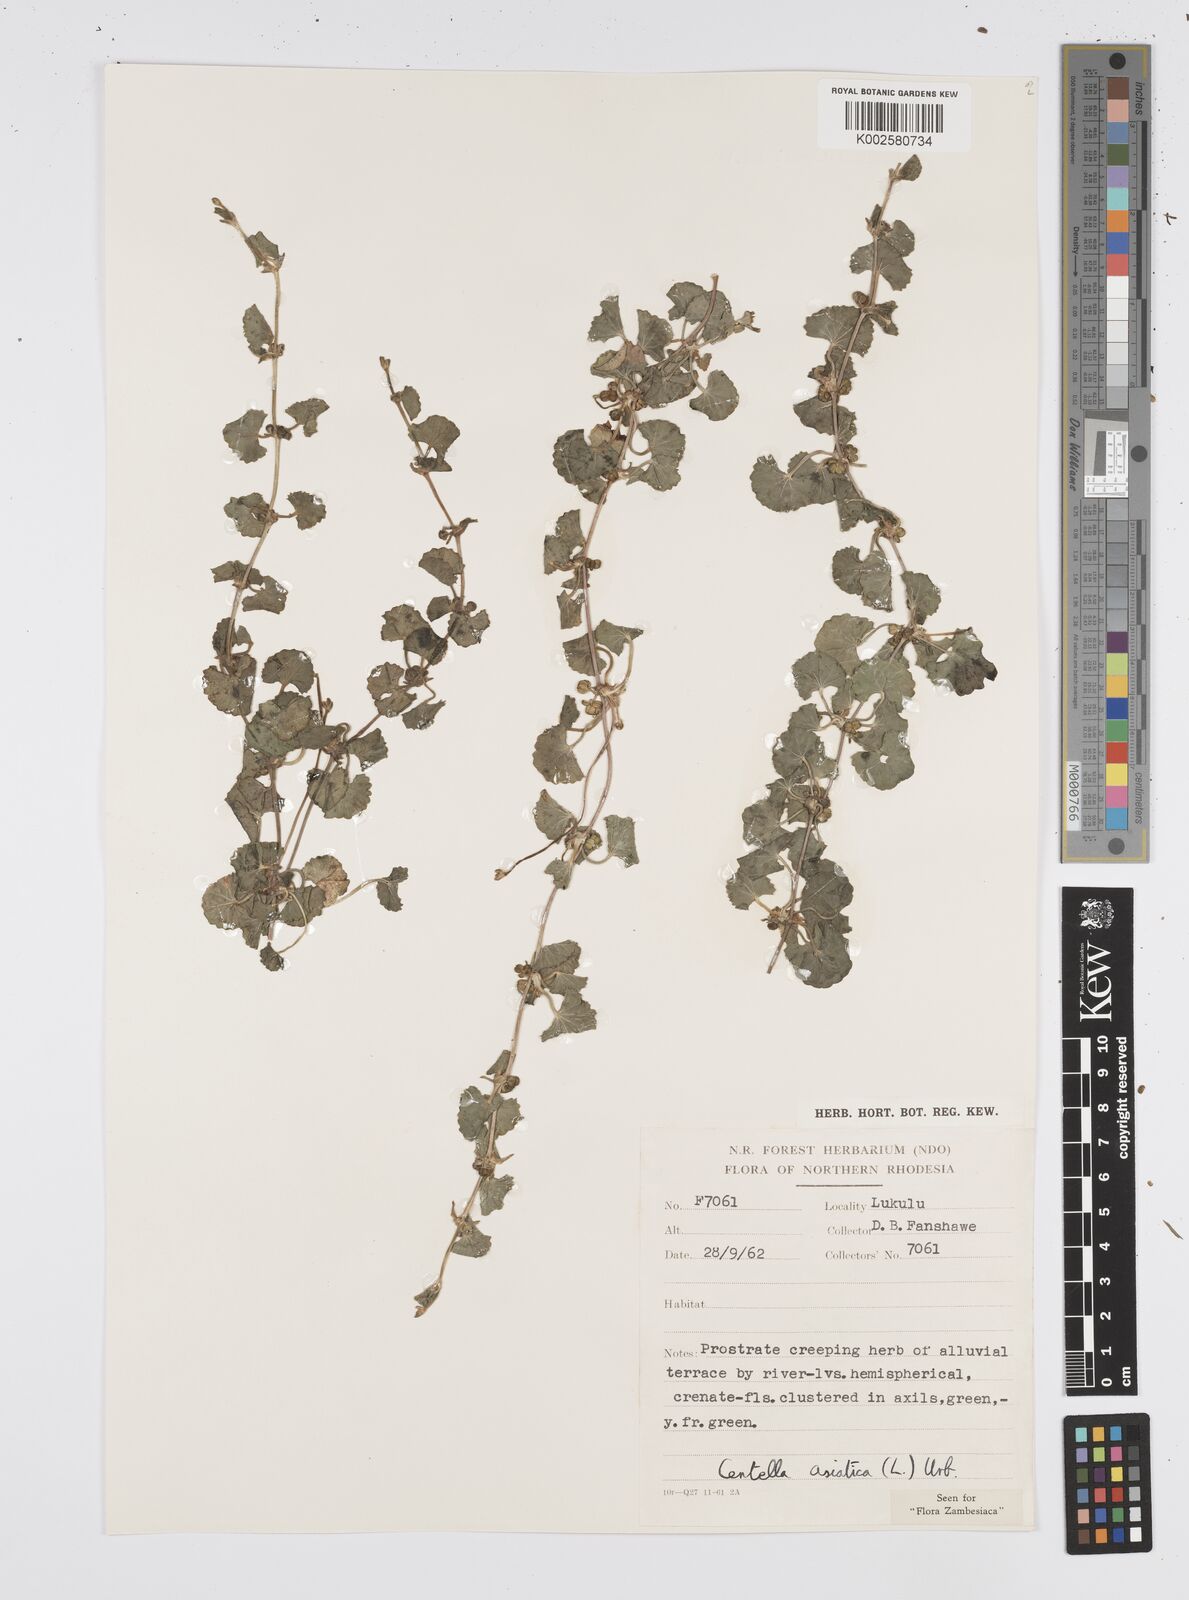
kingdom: Plantae
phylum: Tracheophyta
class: Magnoliopsida
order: Apiales
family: Apiaceae
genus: Centella
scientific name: Centella asiatica
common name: Spadeleaf
